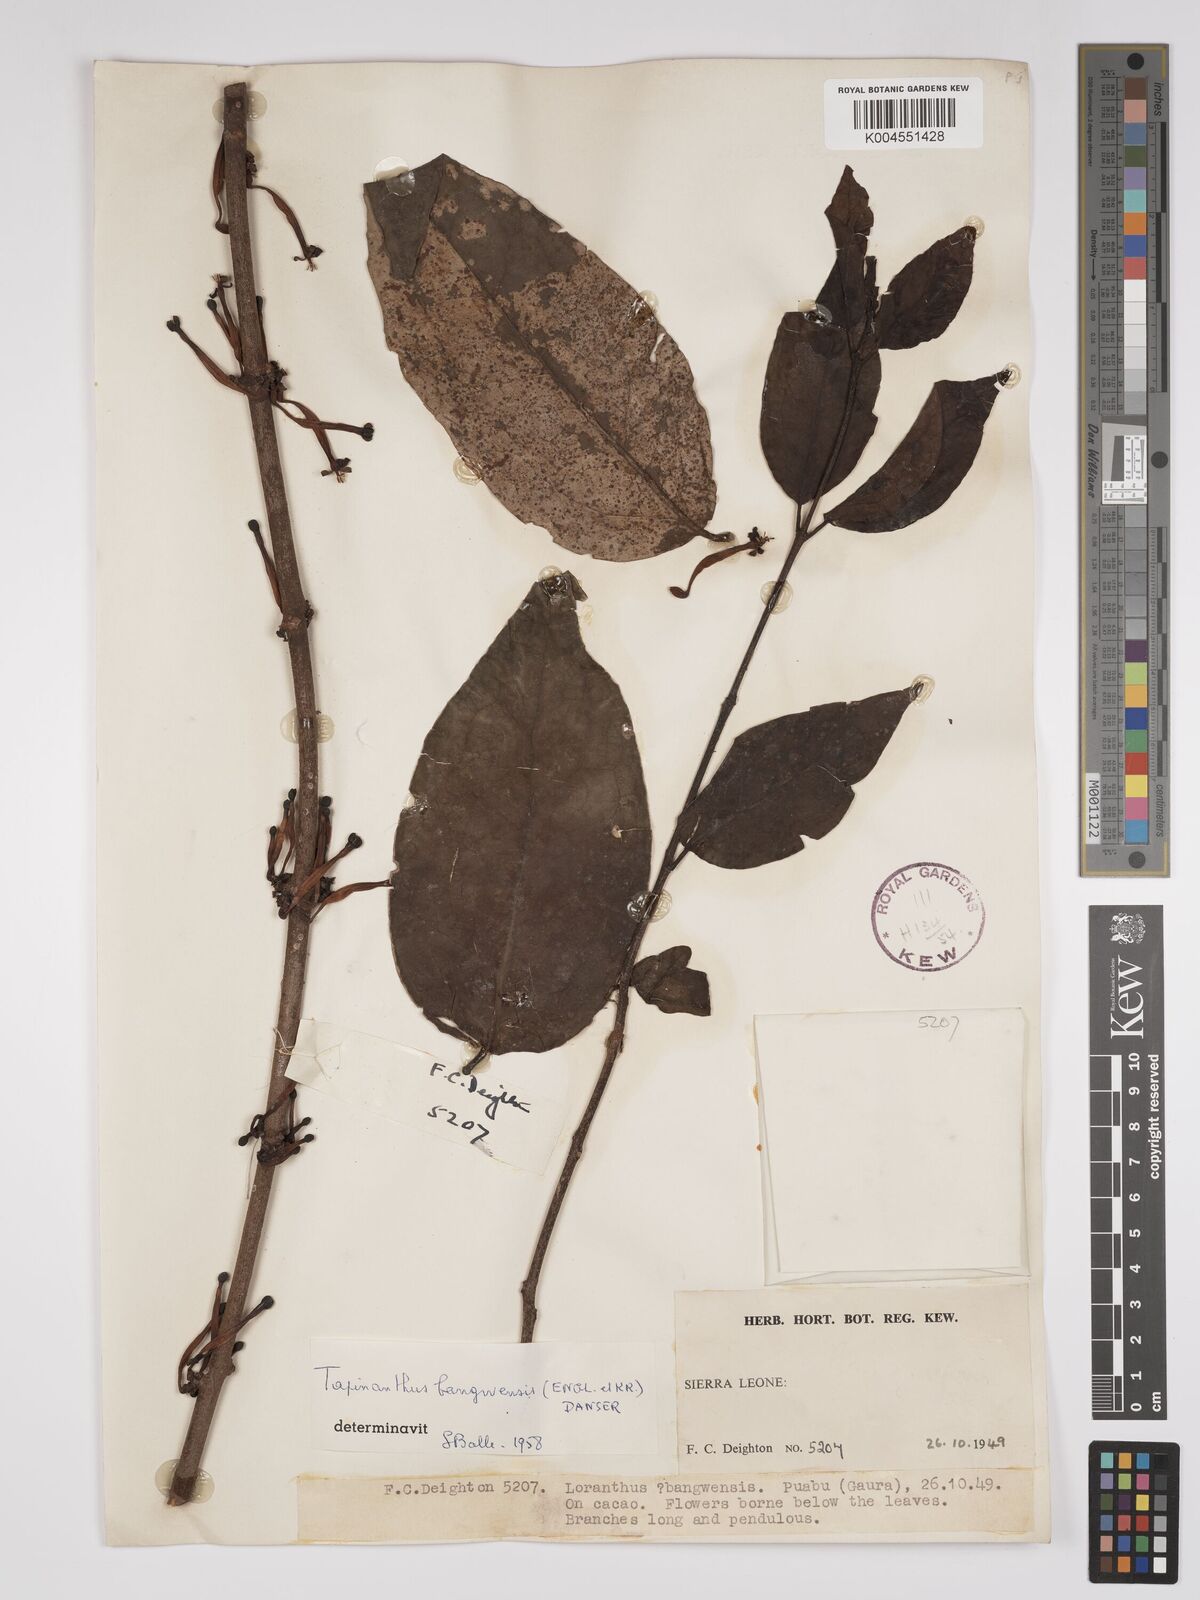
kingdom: Plantae
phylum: Tracheophyta
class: Magnoliopsida
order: Santalales
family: Loranthaceae
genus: Tapinanthus
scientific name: Tapinanthus bangwensis
